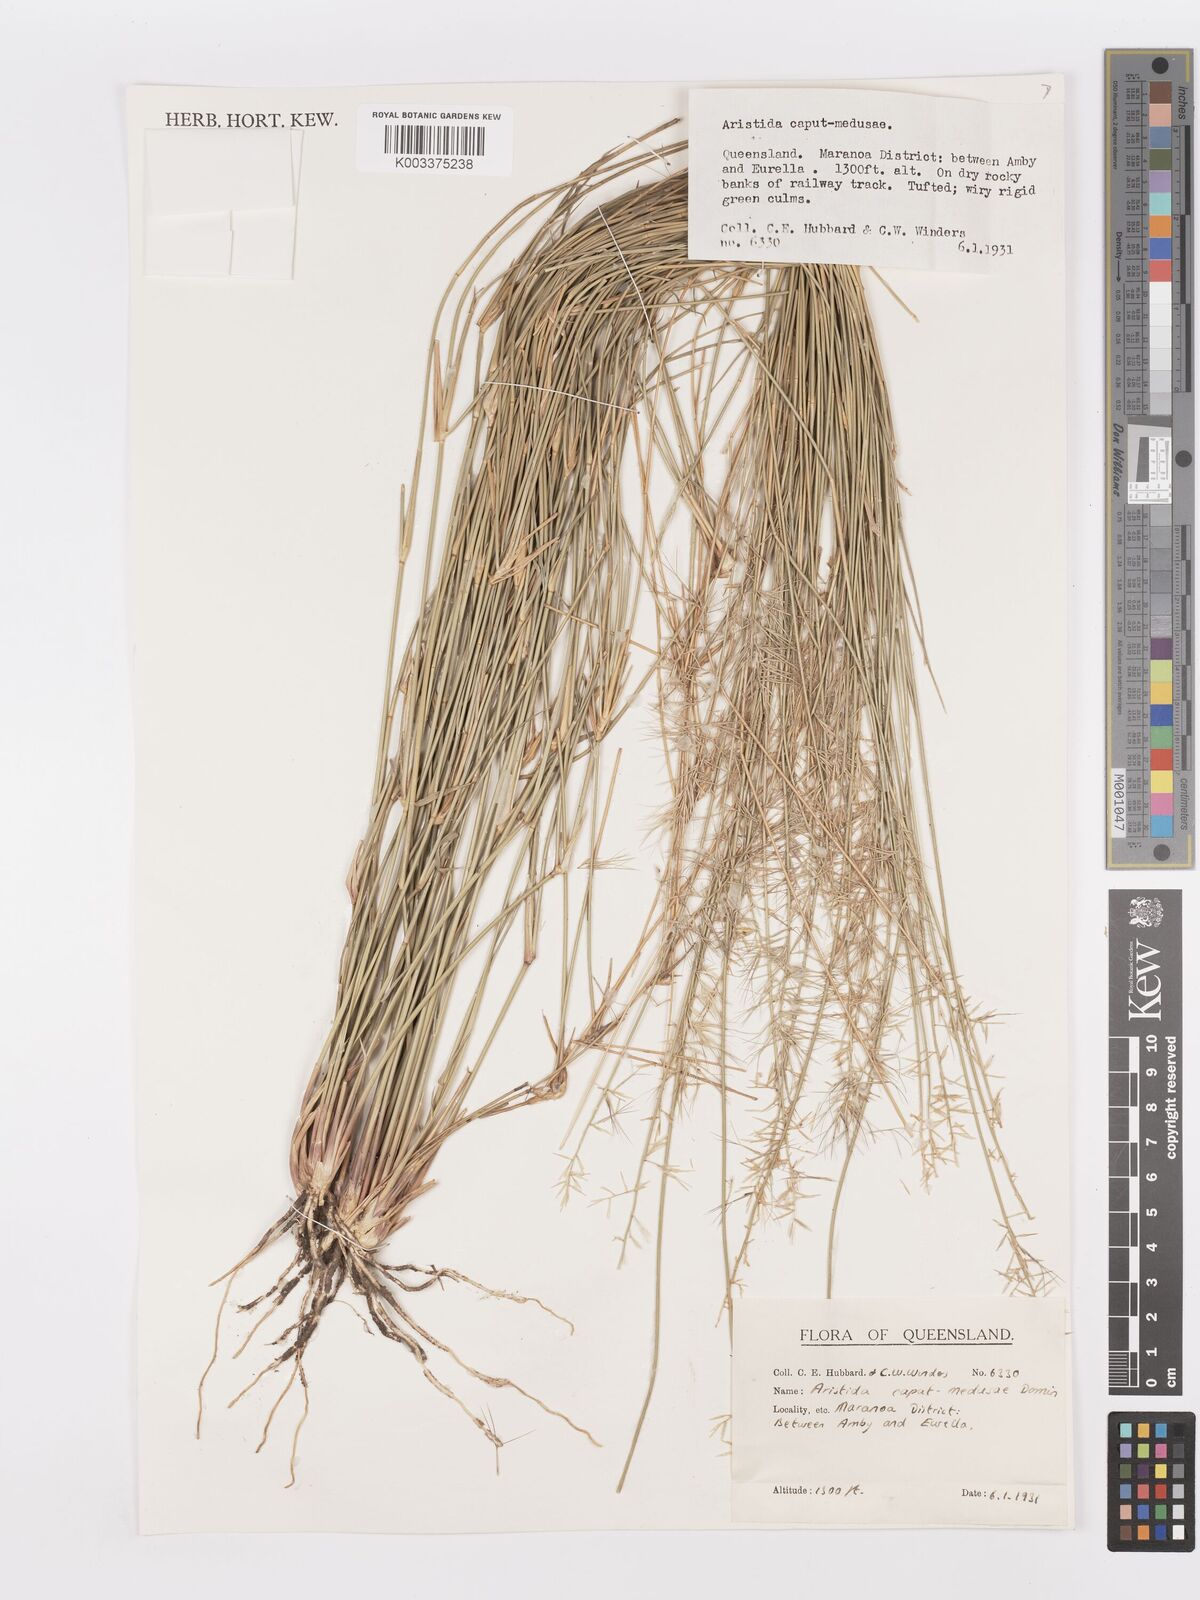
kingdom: Plantae
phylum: Tracheophyta
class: Liliopsida
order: Poales
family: Poaceae
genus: Aristida
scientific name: Aristida caput-medusae
